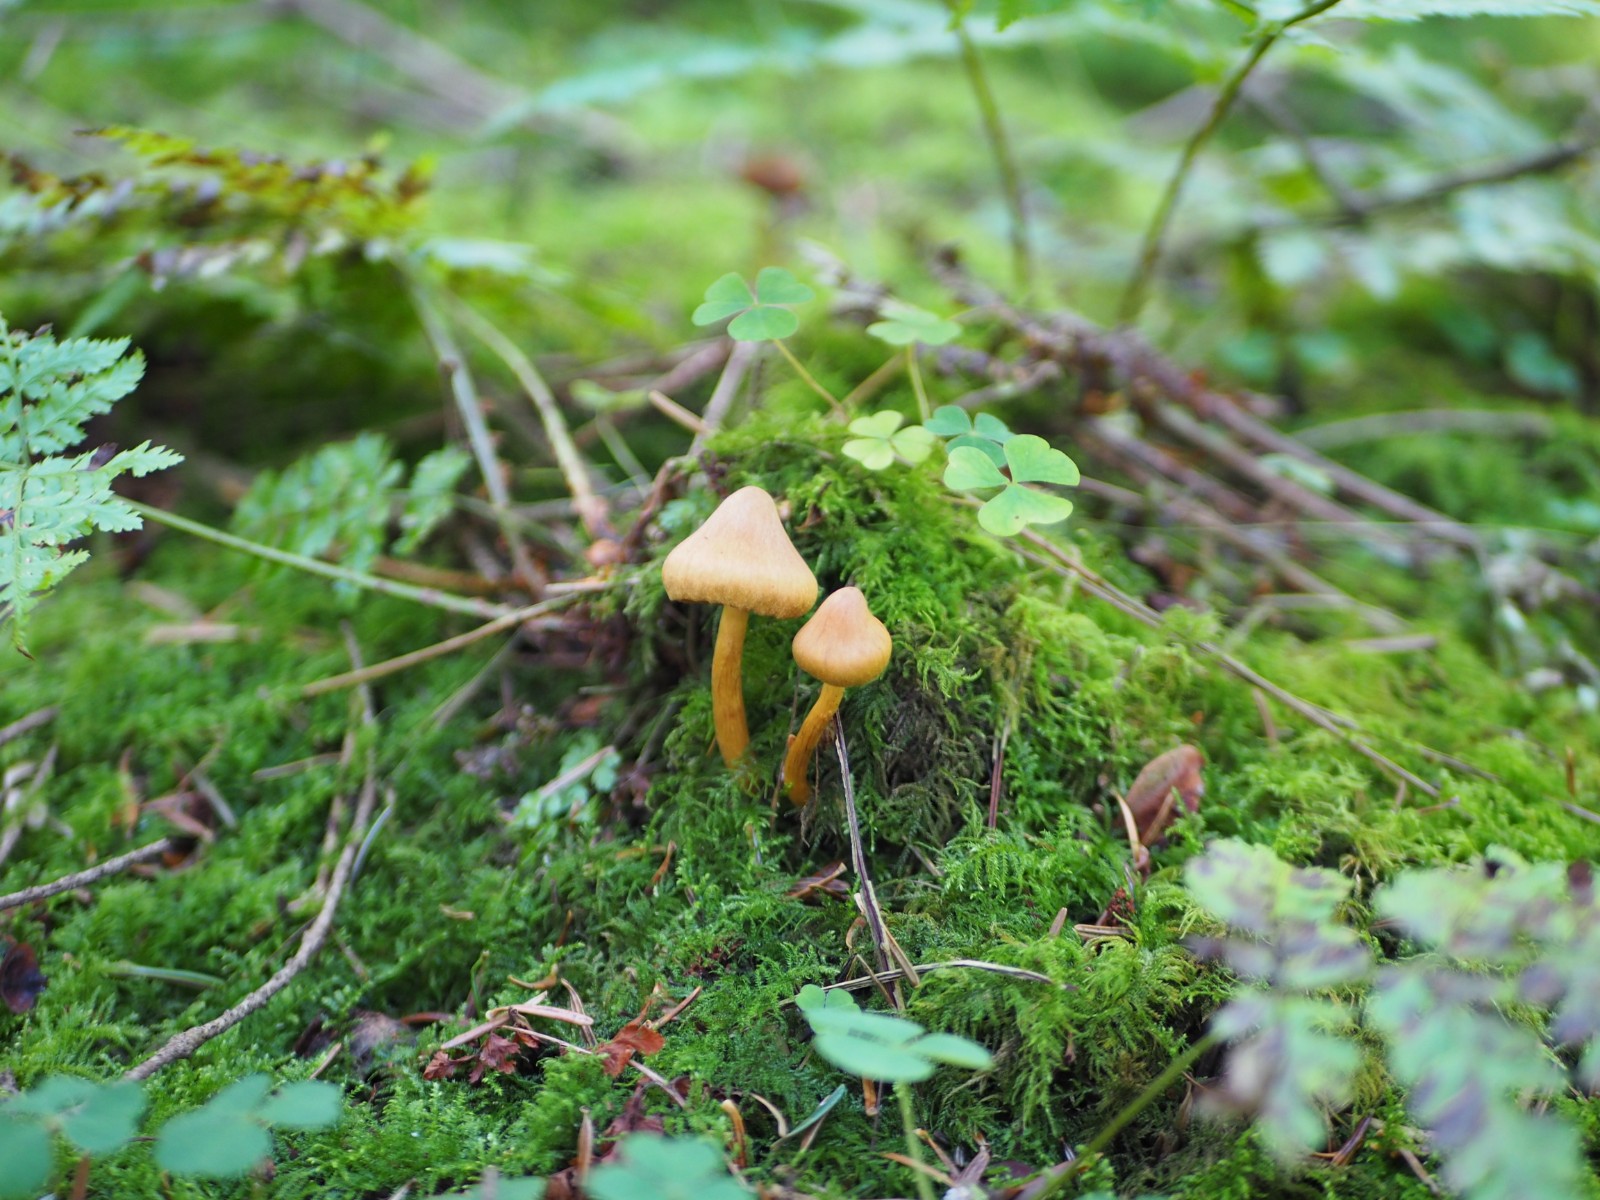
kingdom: Fungi
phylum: Basidiomycota
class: Agaricomycetes
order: Agaricales
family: Cortinariaceae
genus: Cortinarius
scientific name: Cortinarius
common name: gulbladet slørhat
